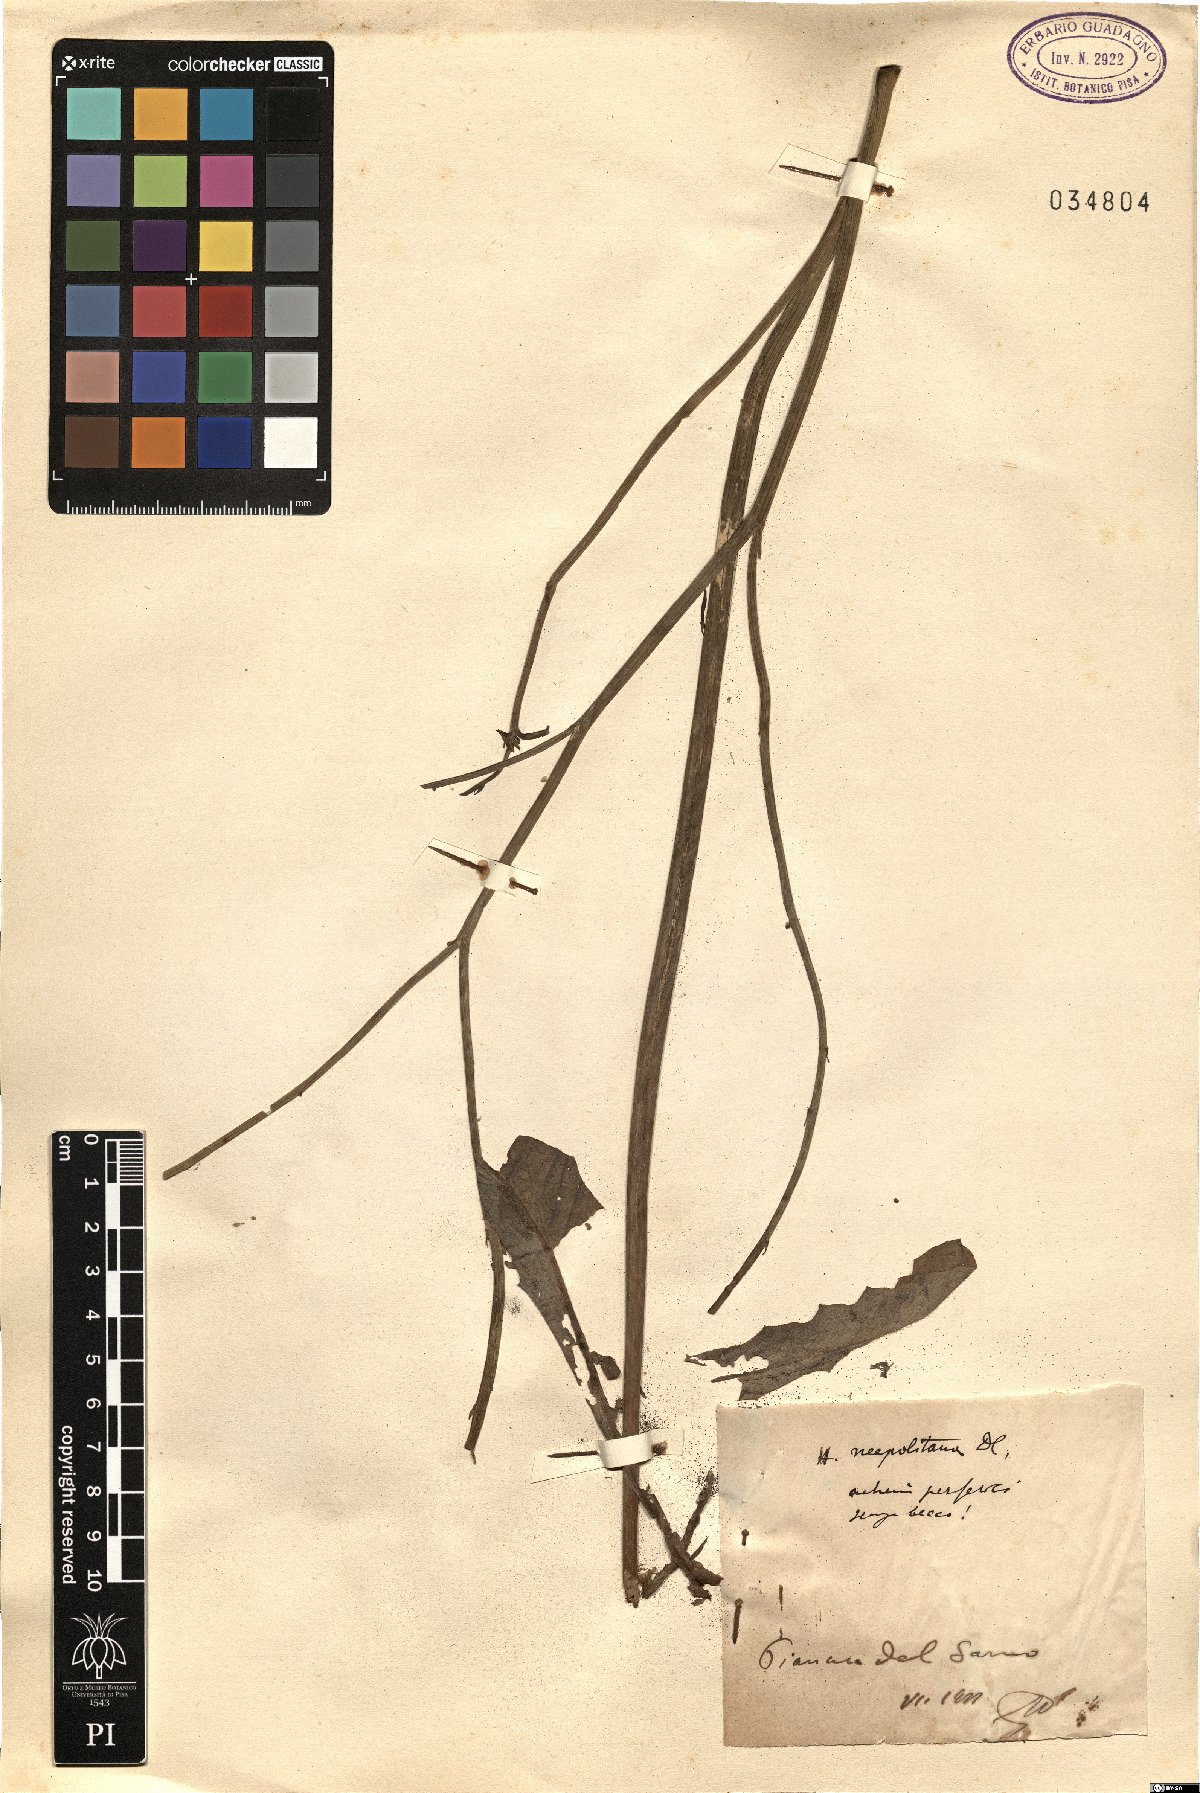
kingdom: Plantae
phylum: Tracheophyta
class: Magnoliopsida
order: Asterales
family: Asteraceae
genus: Hypochaeris
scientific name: Hypochaeris radicata
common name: Flatweed
